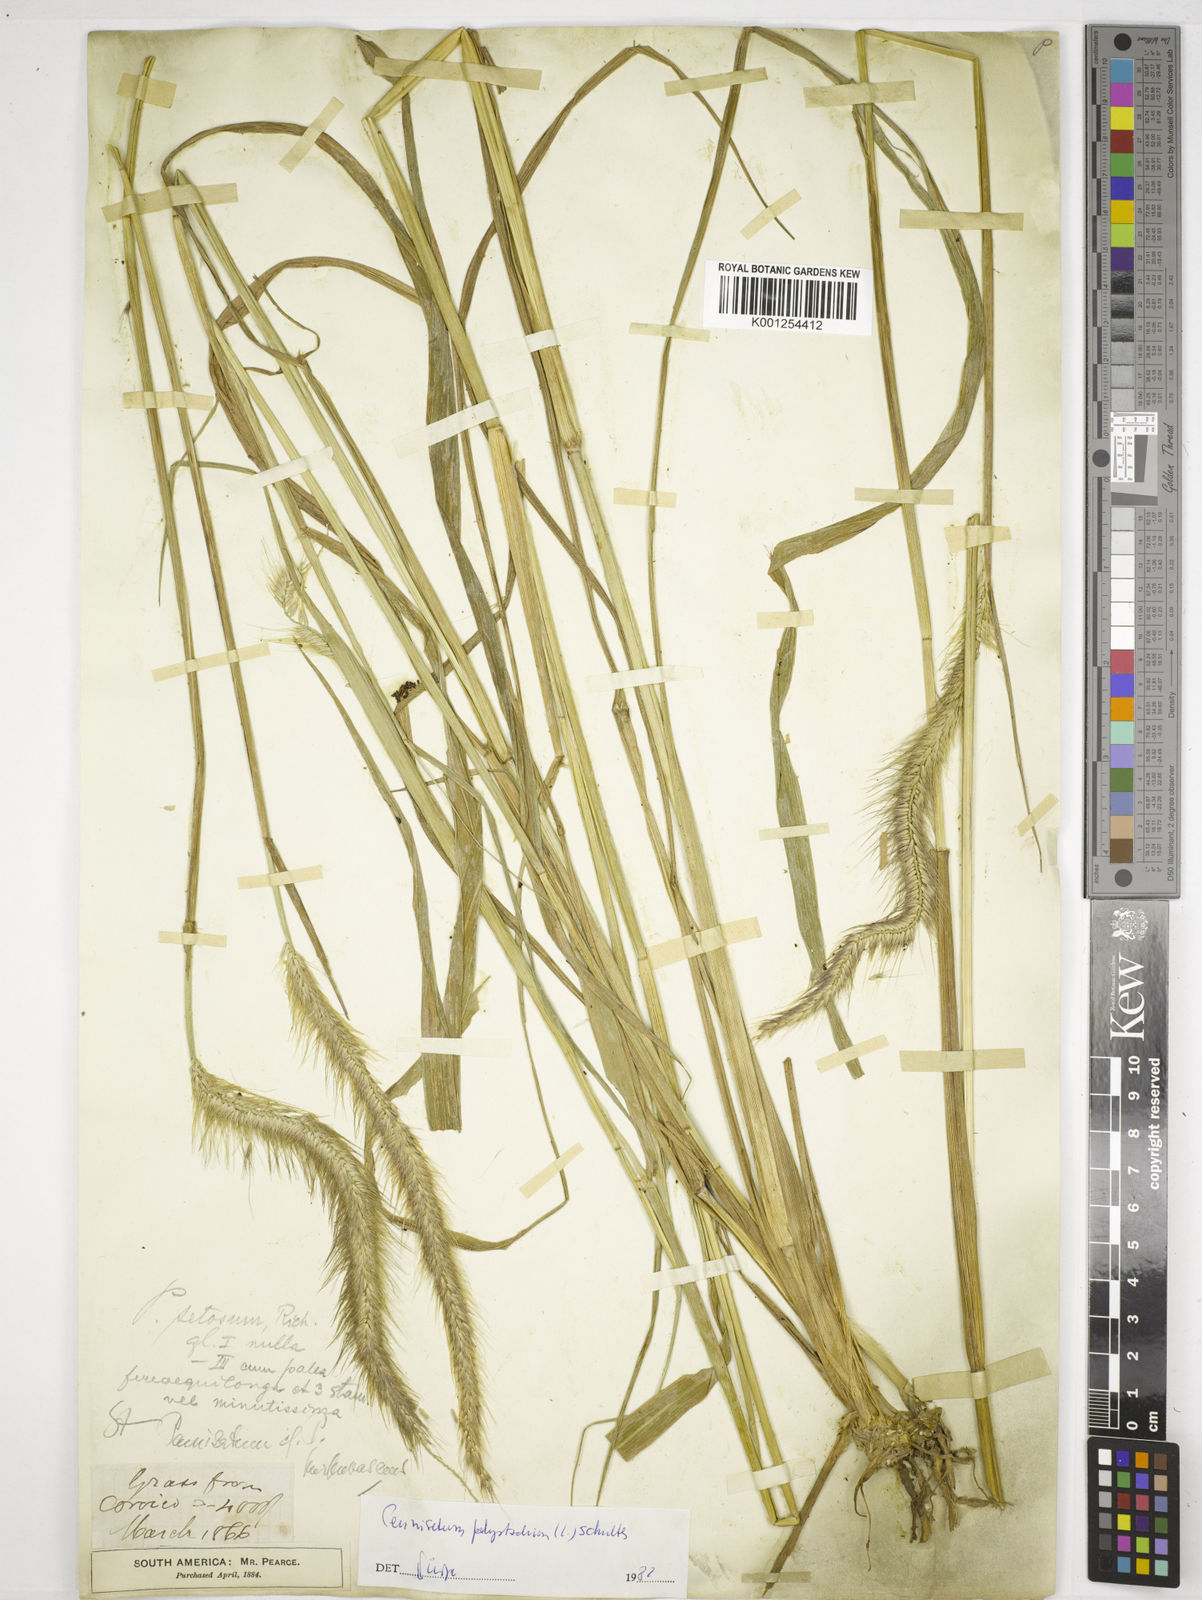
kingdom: Plantae
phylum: Tracheophyta
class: Liliopsida
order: Poales
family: Poaceae
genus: Setaria
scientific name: Setaria parviflora
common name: Knotroot bristle-grass
